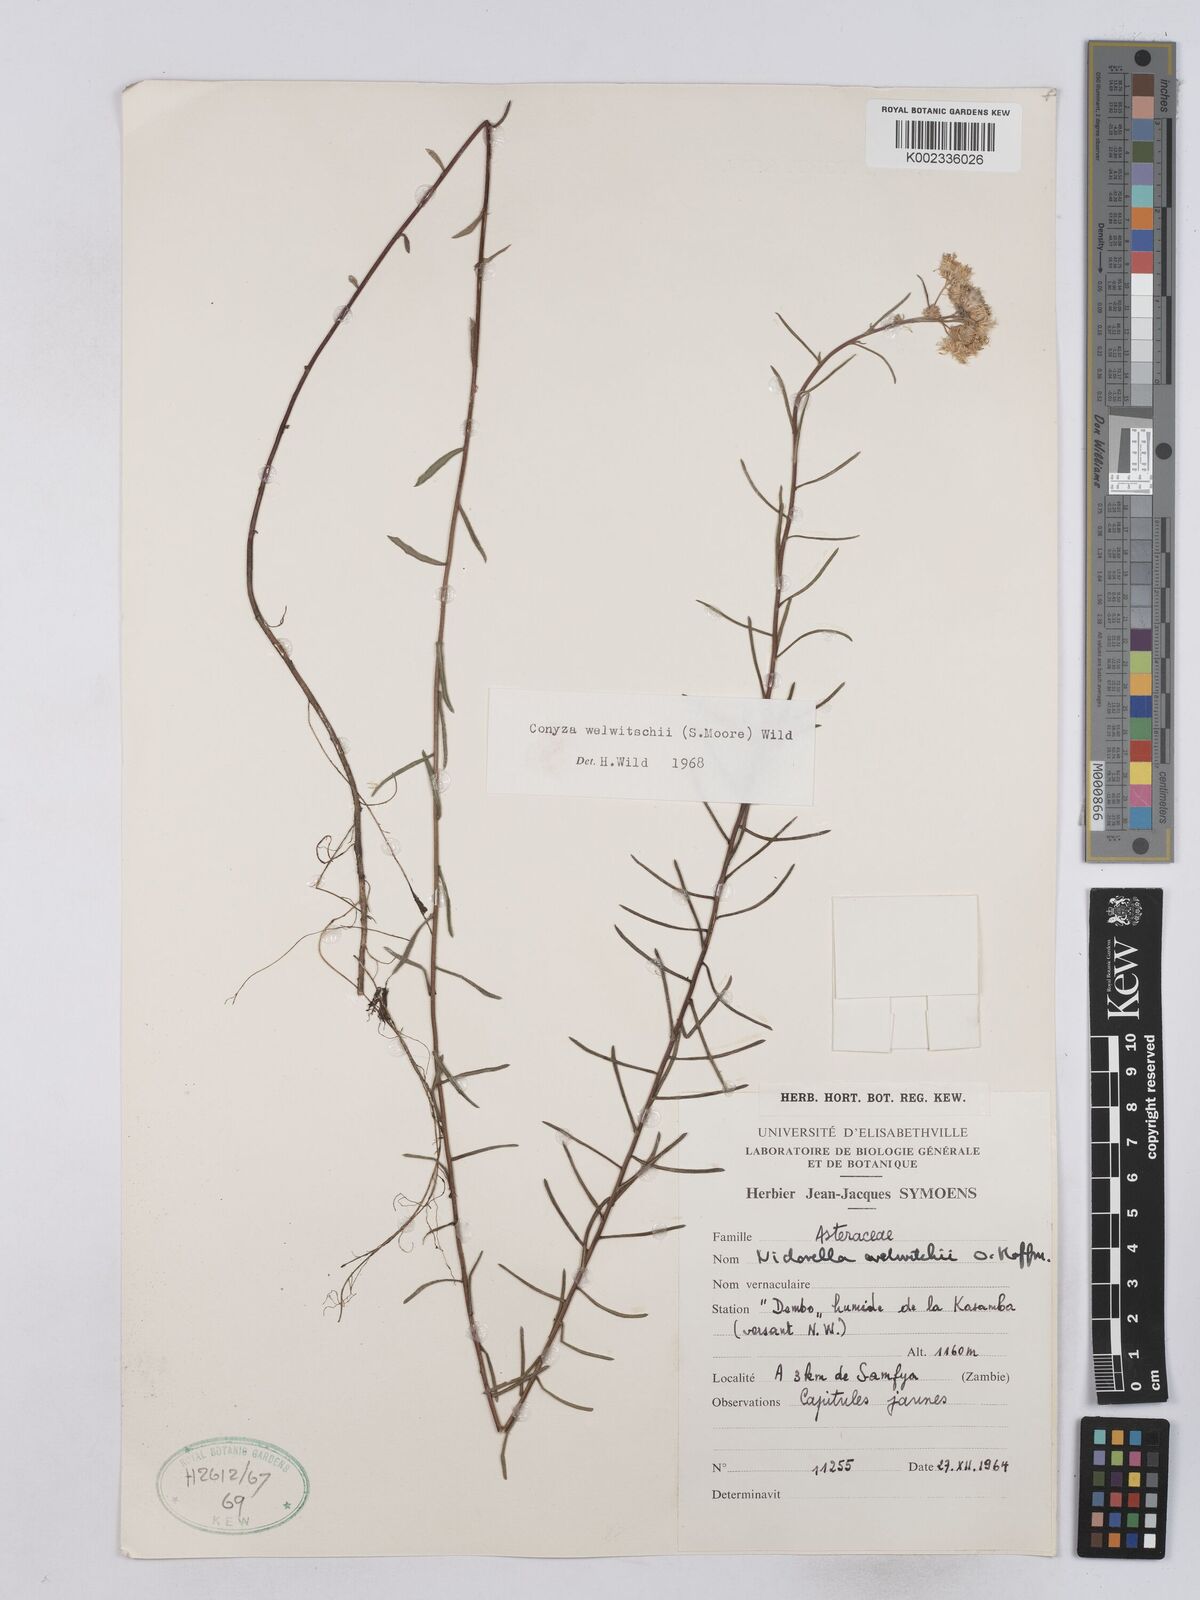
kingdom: Plantae
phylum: Tracheophyta
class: Magnoliopsida
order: Asterales
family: Asteraceae
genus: Nidorella
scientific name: Nidorella welwitschii
